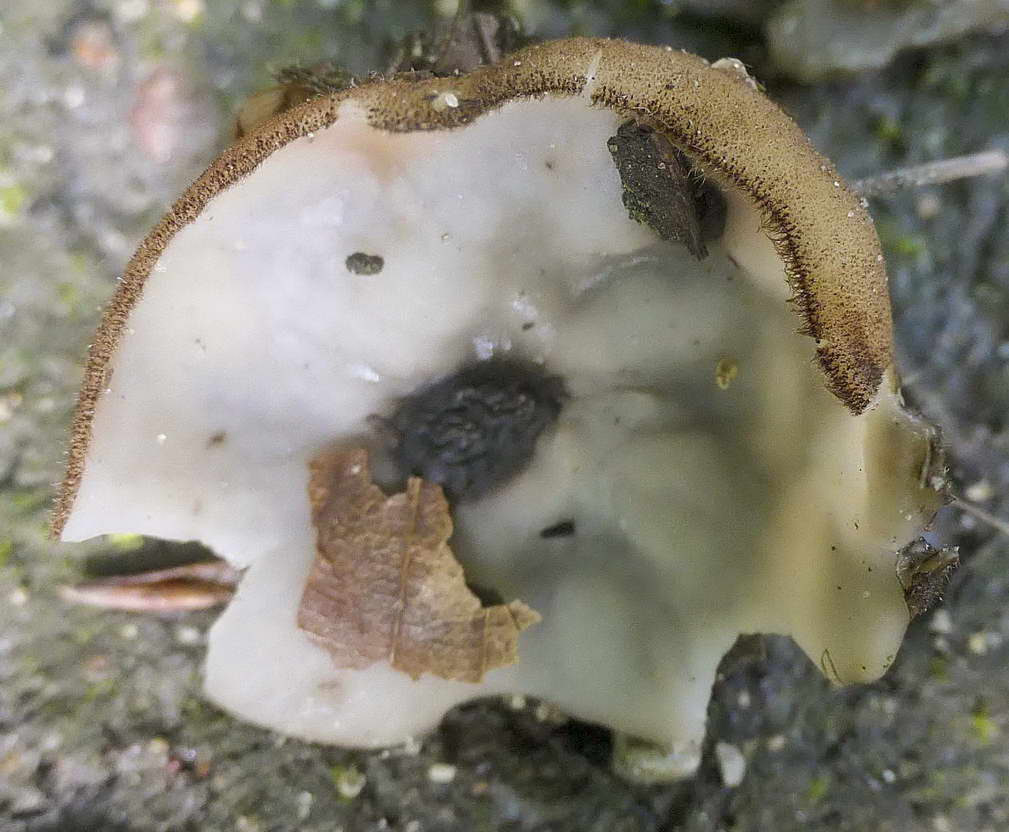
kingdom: Fungi
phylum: Ascomycota
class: Pezizomycetes
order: Pezizales
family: Pyronemataceae
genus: Humaria
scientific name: Humaria hemisphaerica
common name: halvkugleformet børstebæger
